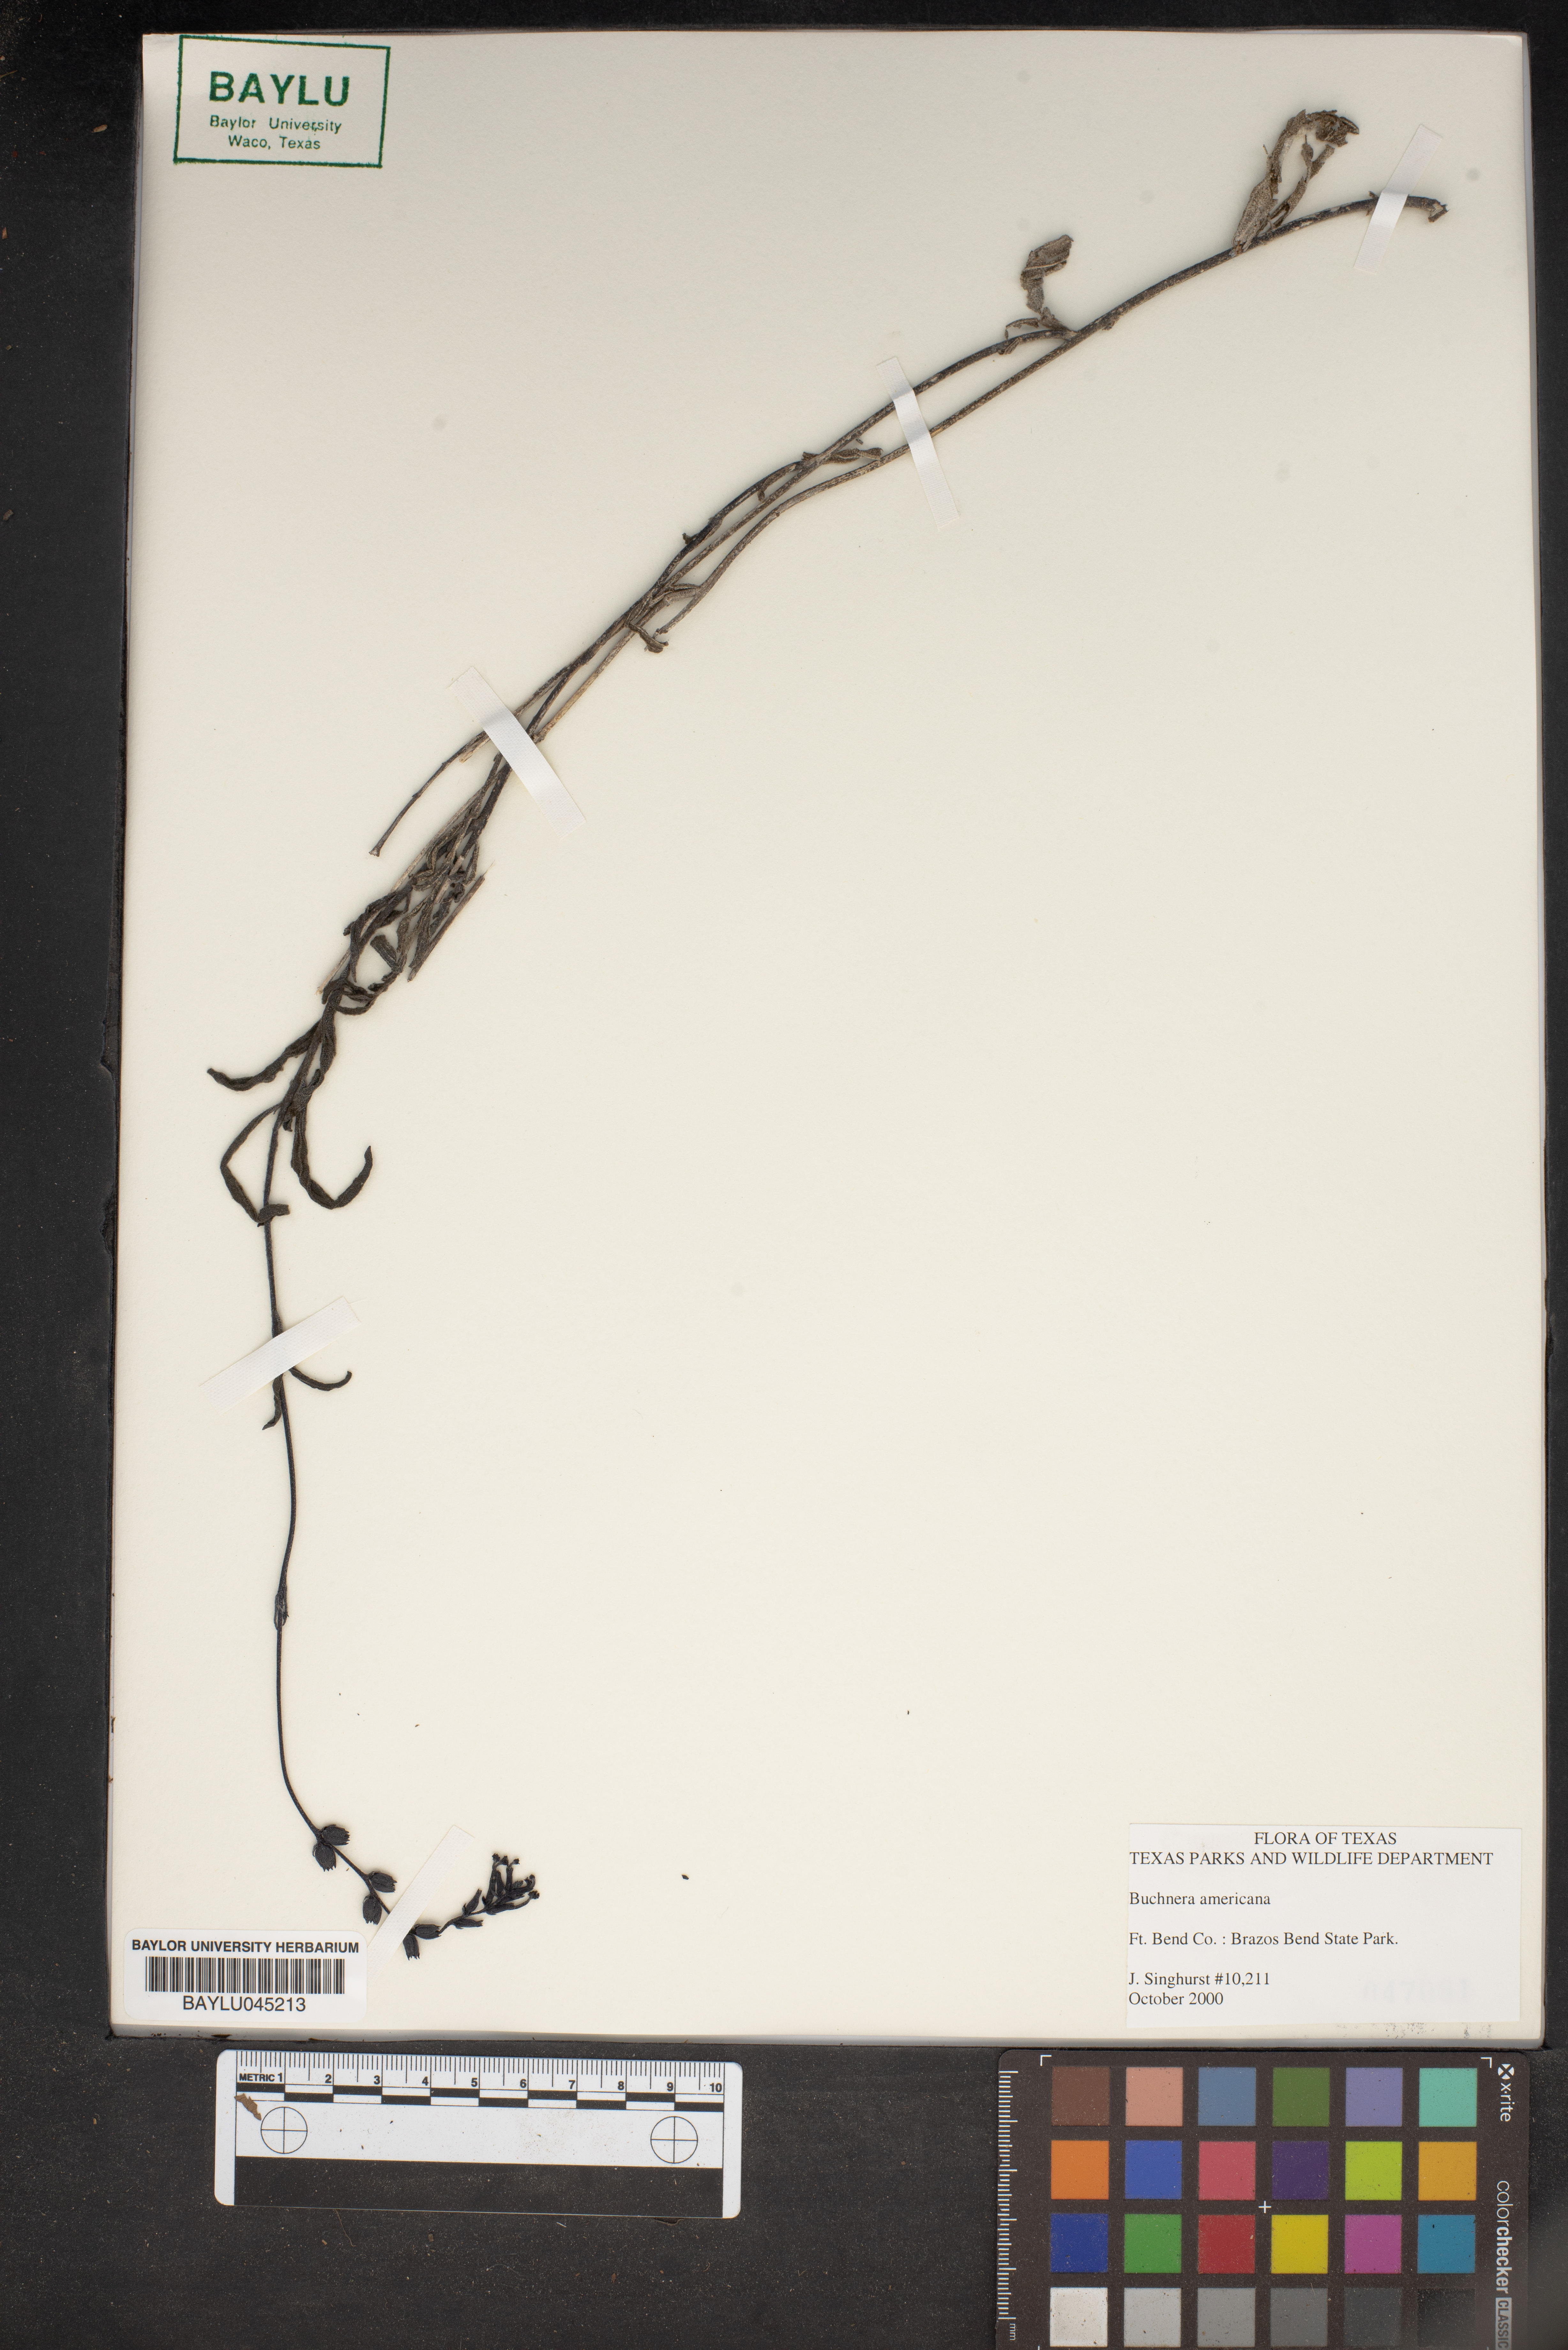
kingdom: Plantae
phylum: Tracheophyta
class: Magnoliopsida
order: Lamiales
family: Orobanchaceae
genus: Buchnera
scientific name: Buchnera americana
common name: American bluehearts
